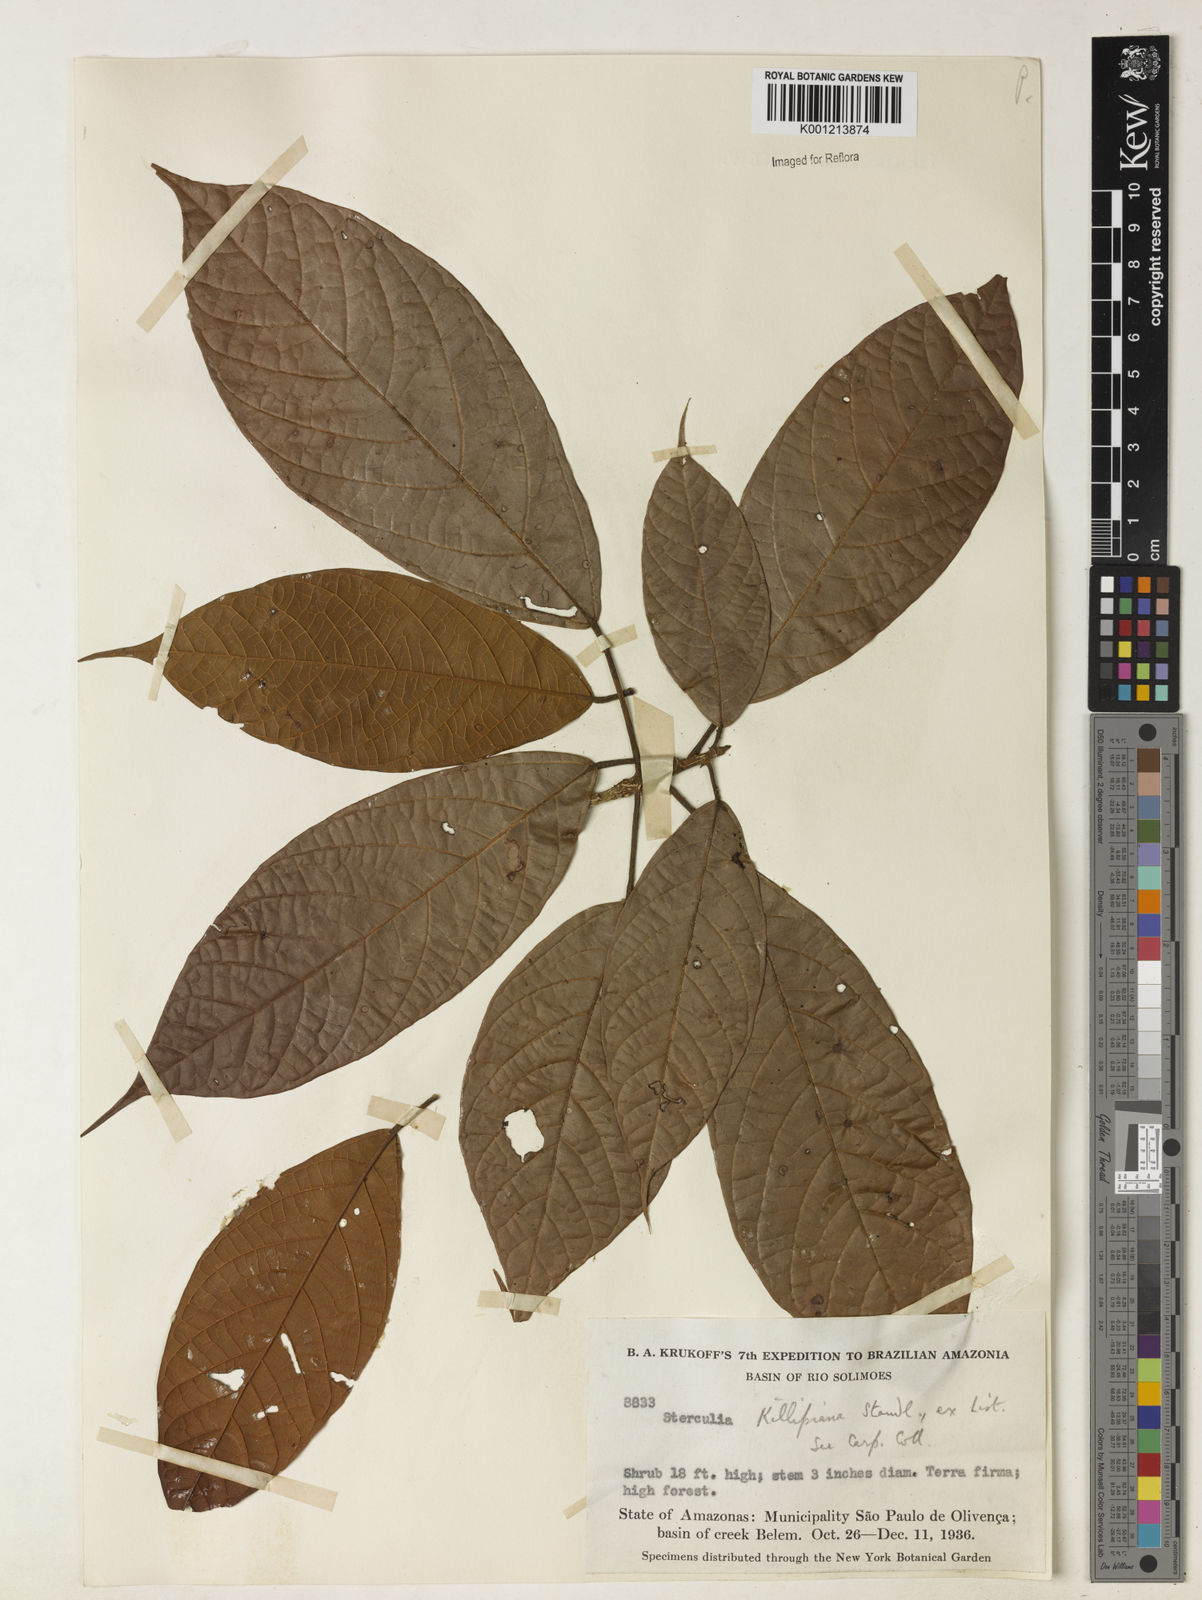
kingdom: Plantae
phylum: Tracheophyta
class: Magnoliopsida
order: Malvales
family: Malvaceae
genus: Sterculia
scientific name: Sterculia
